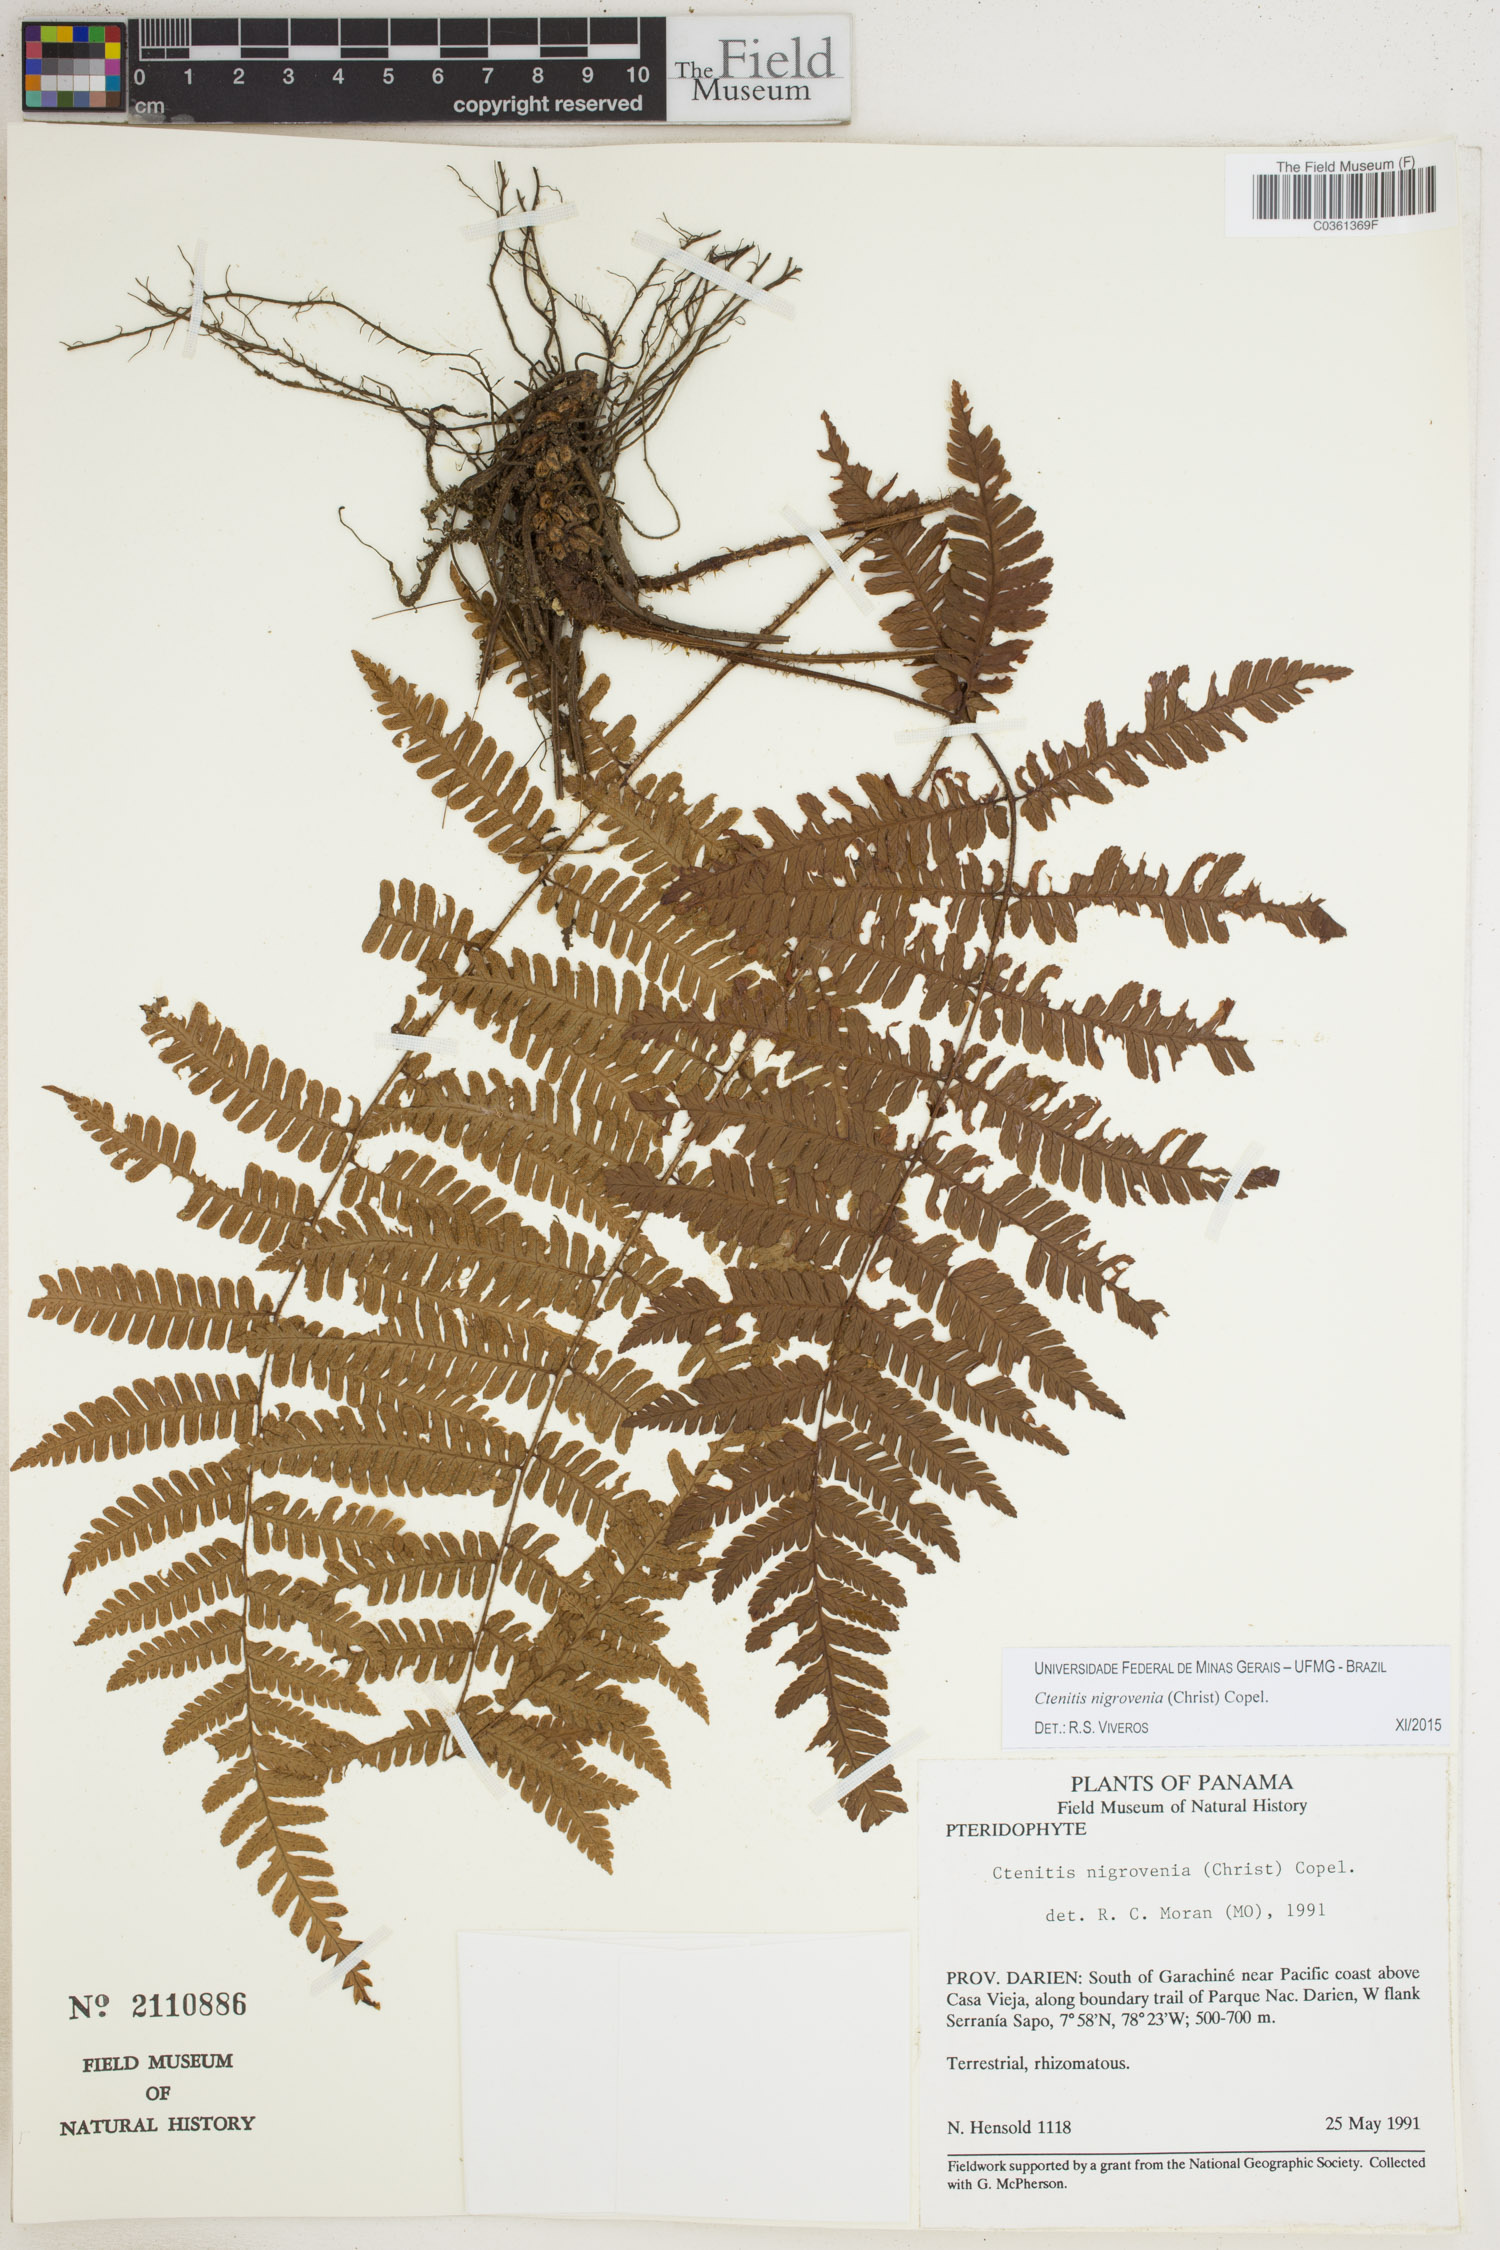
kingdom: Plantae
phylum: Tracheophyta
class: Polypodiopsida
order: Polypodiales
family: Dryopteridaceae
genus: Ctenitis
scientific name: Ctenitis nigrovenia
